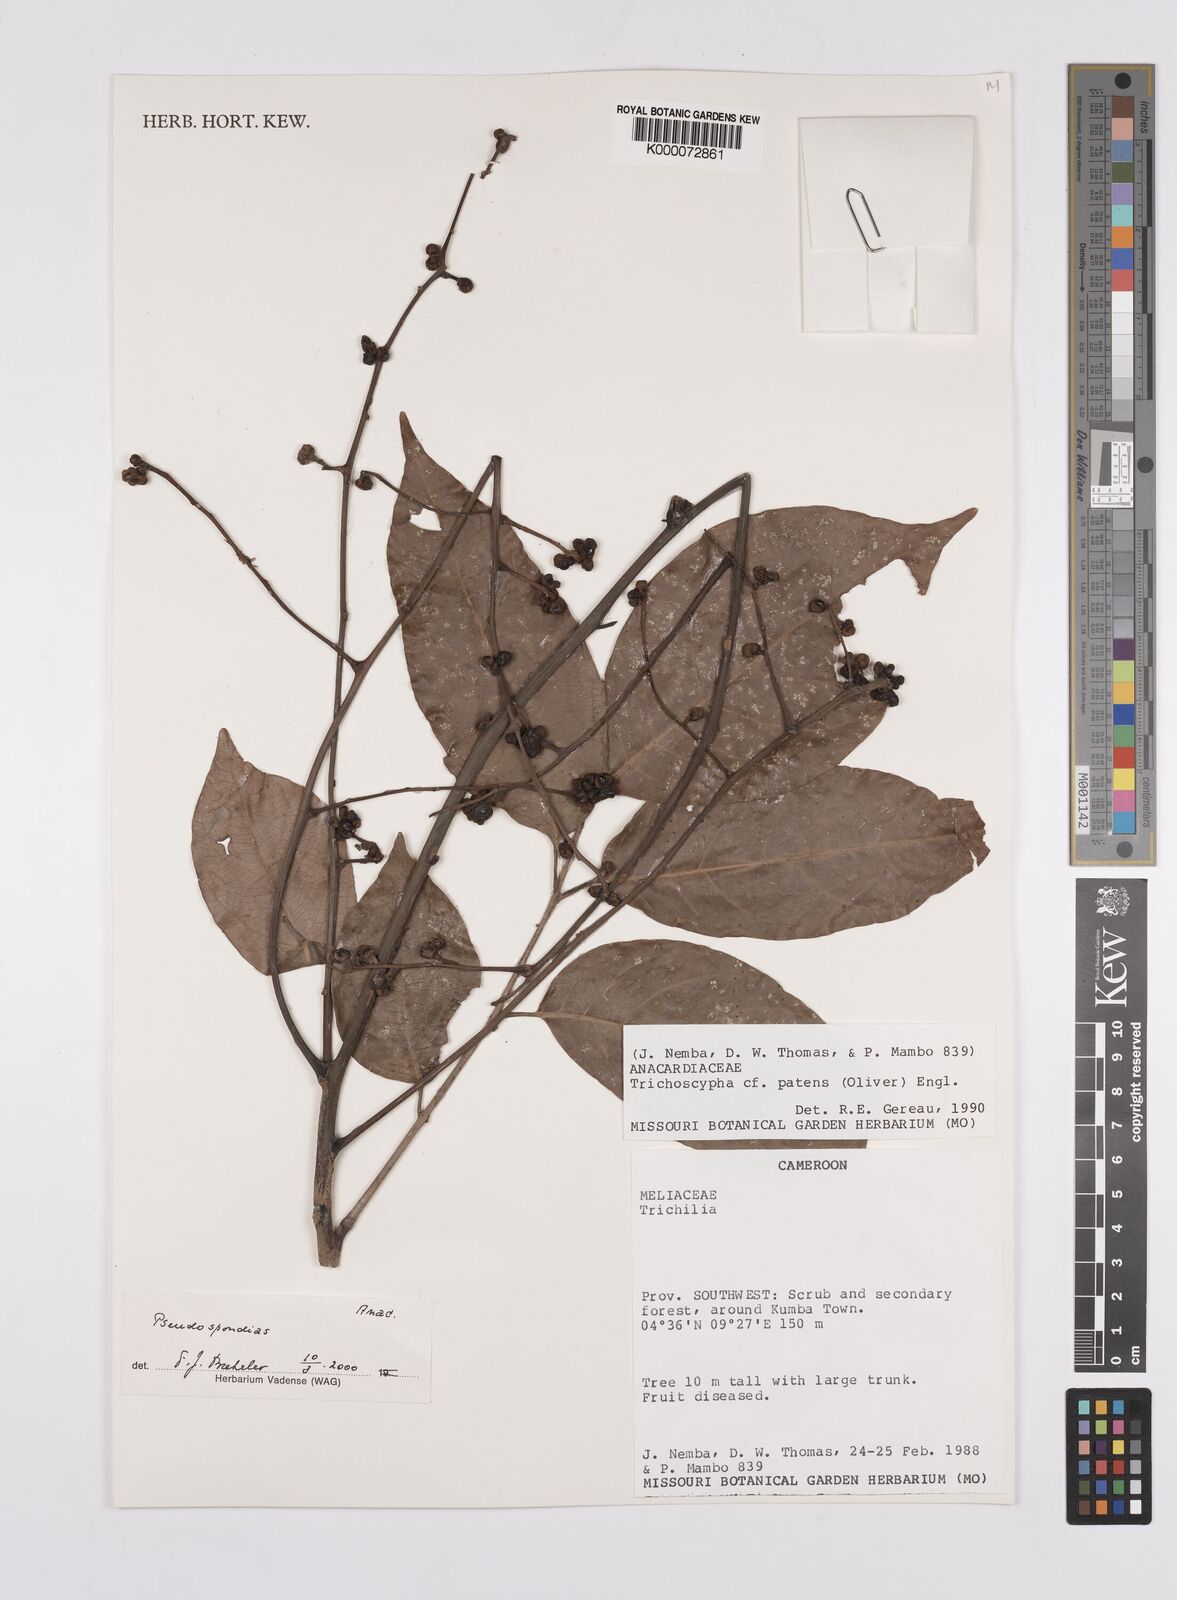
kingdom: Plantae
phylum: Tracheophyta
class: Magnoliopsida
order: Sapindales
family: Anacardiaceae
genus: Pseudospondias
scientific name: Pseudospondias
